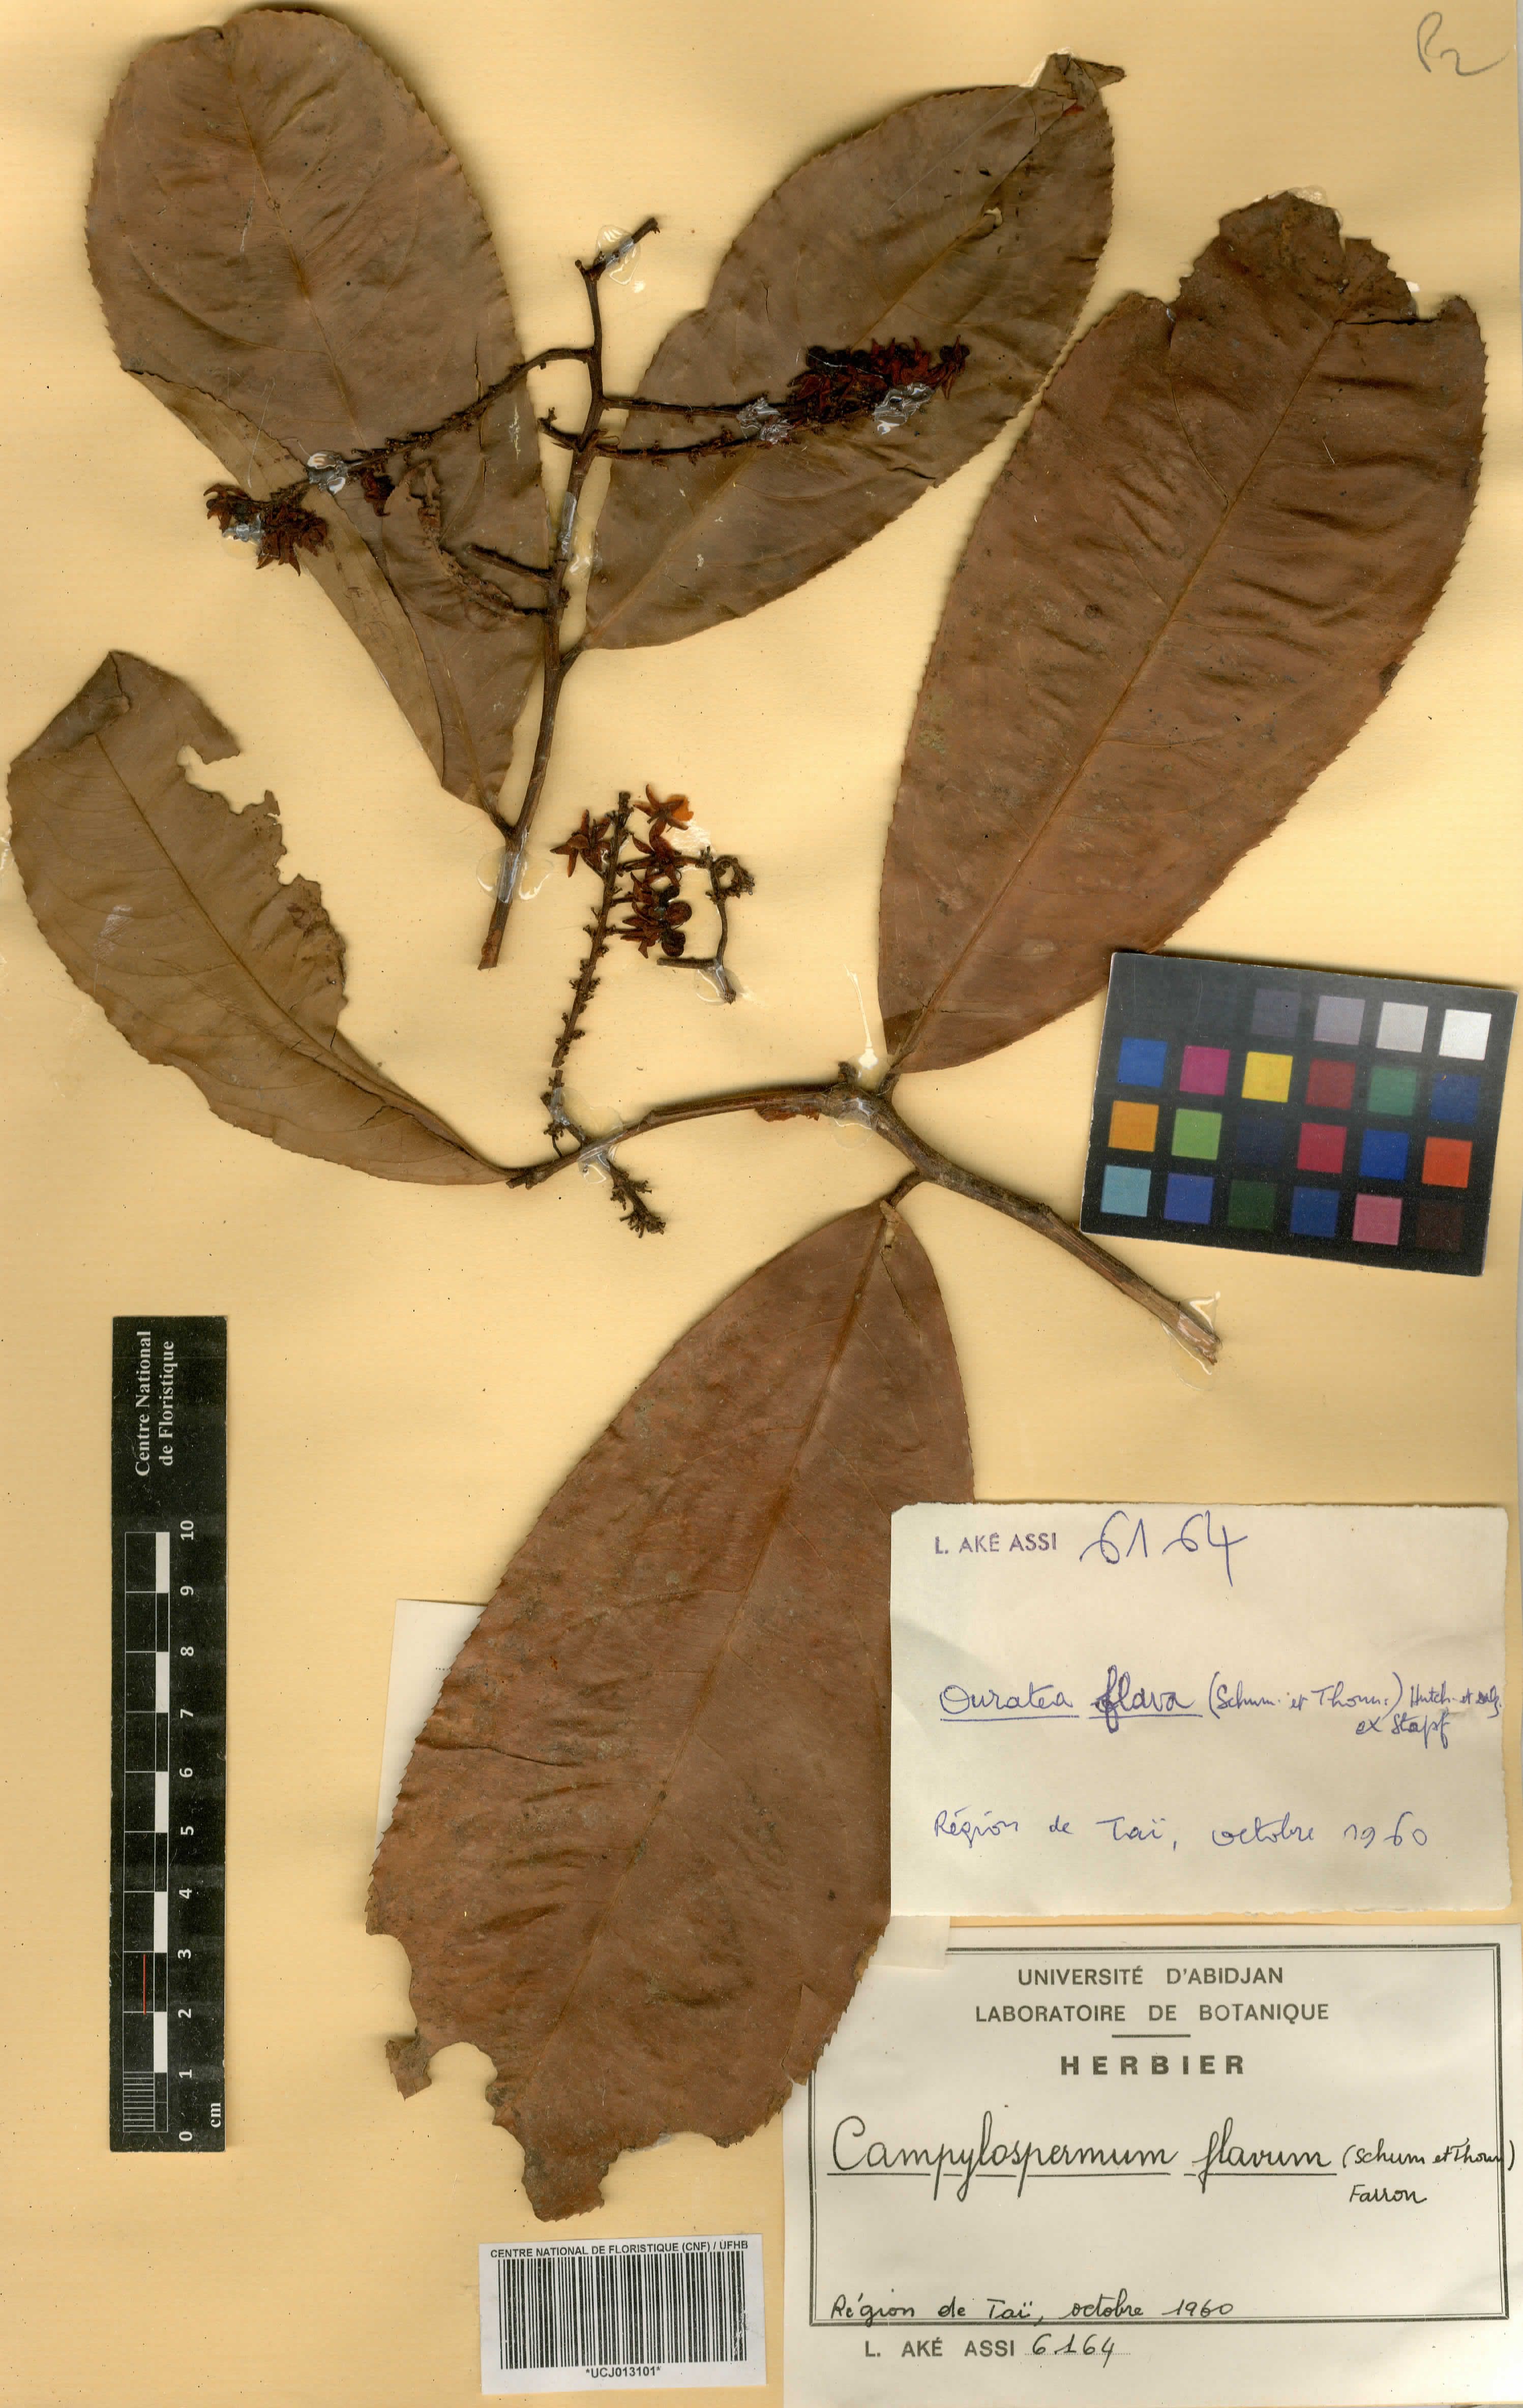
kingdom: Plantae
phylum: Tracheophyta
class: Magnoliopsida
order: Malpighiales
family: Ochnaceae
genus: Campylospermum
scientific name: Campylospermum flavum
